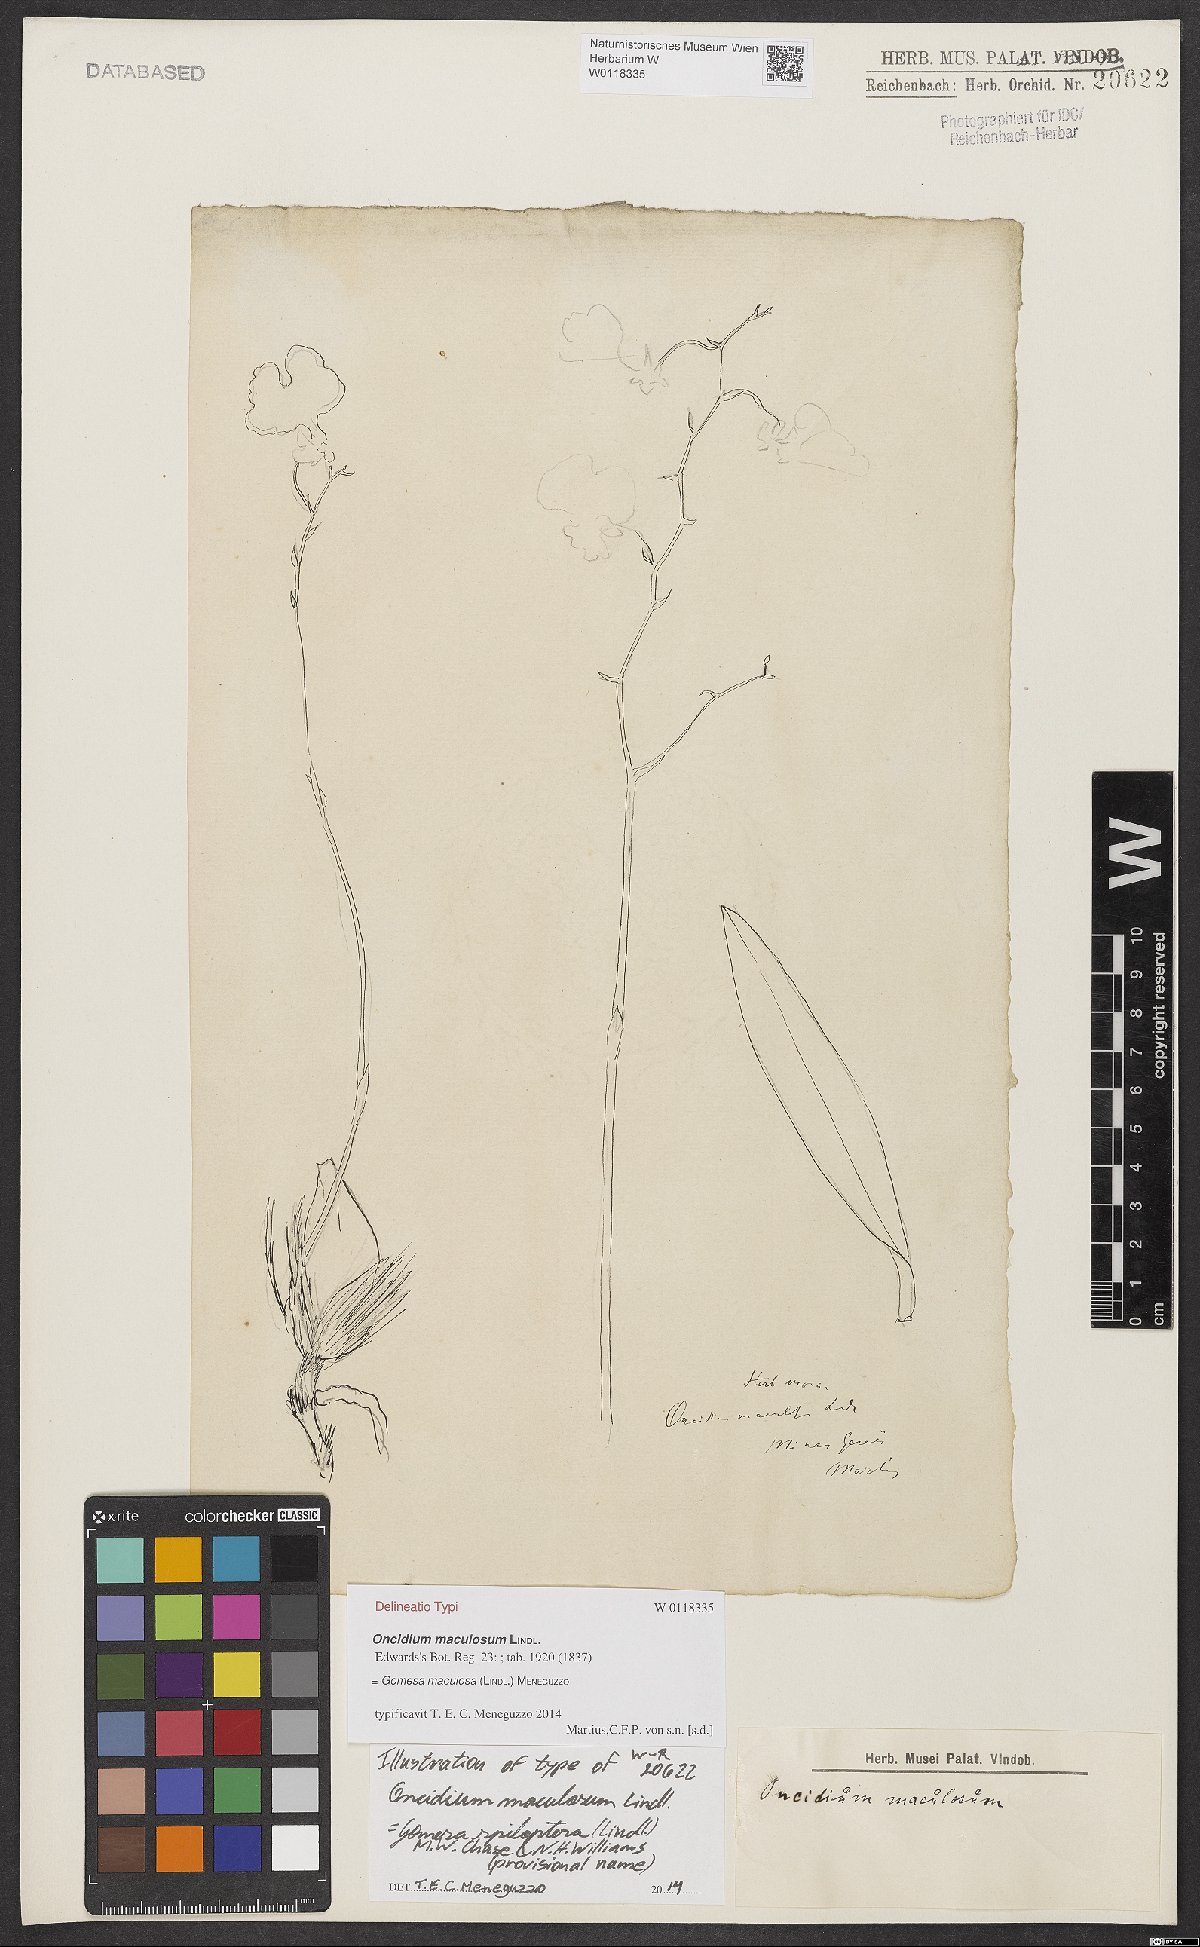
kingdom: Plantae
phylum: Tracheophyta
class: Liliopsida
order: Asparagales
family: Orchidaceae
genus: Gomesa
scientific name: Gomesa maculosa
